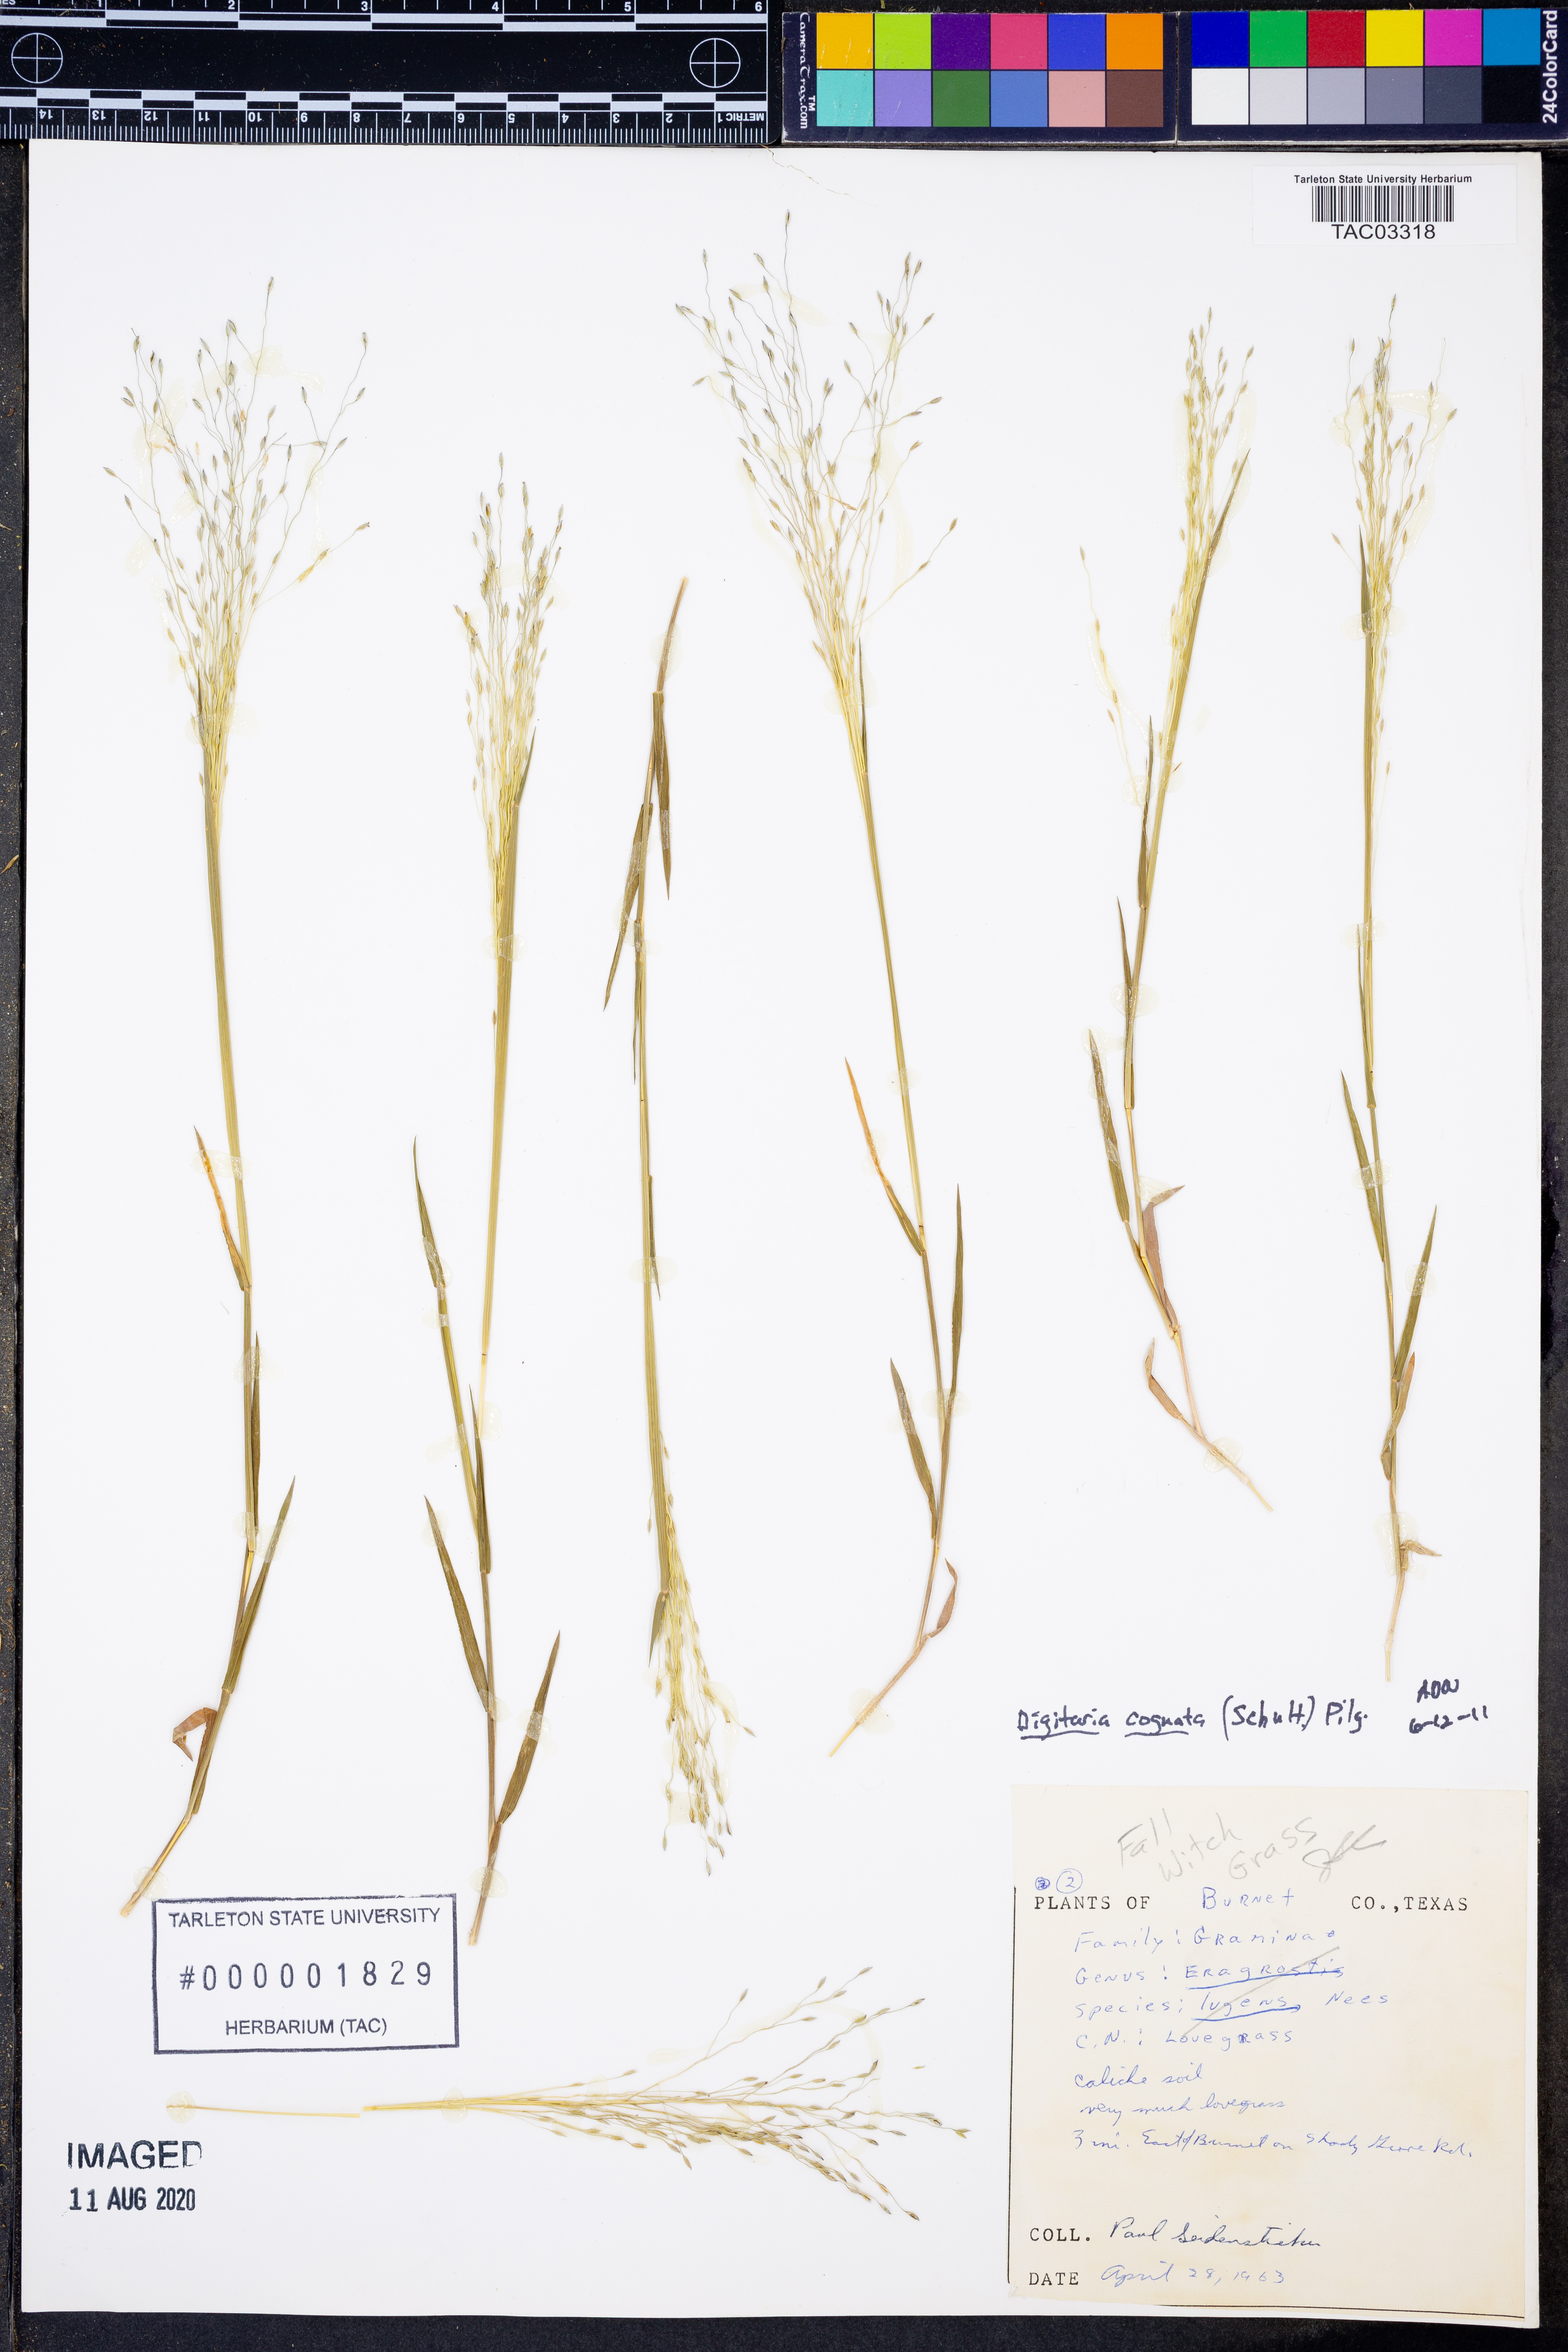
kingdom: Plantae
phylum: Tracheophyta
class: Liliopsida
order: Poales
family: Poaceae
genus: Digitaria
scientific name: Digitaria cognata
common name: Fall witchgrass
